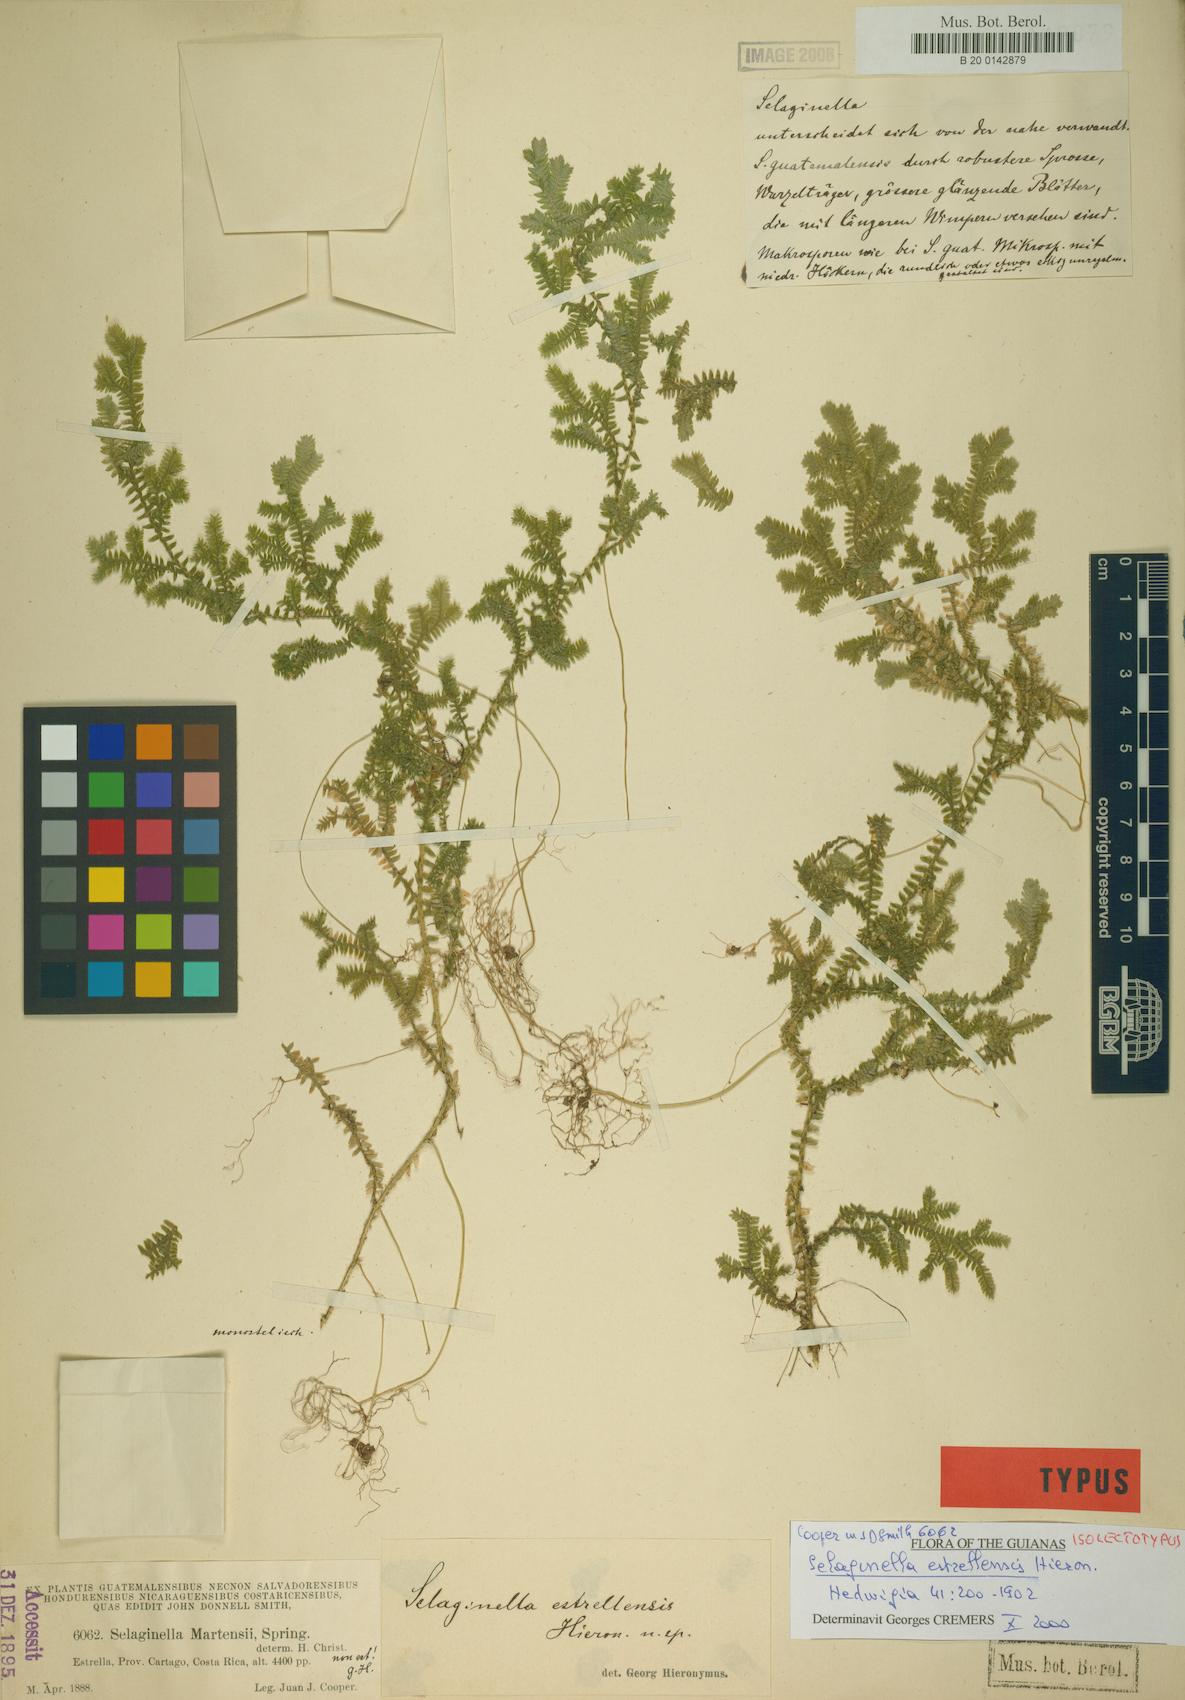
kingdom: Plantae
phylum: Tracheophyta
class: Lycopodiopsida
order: Selaginellales
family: Selaginellaceae
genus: Selaginella
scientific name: Selaginella estrellensis
